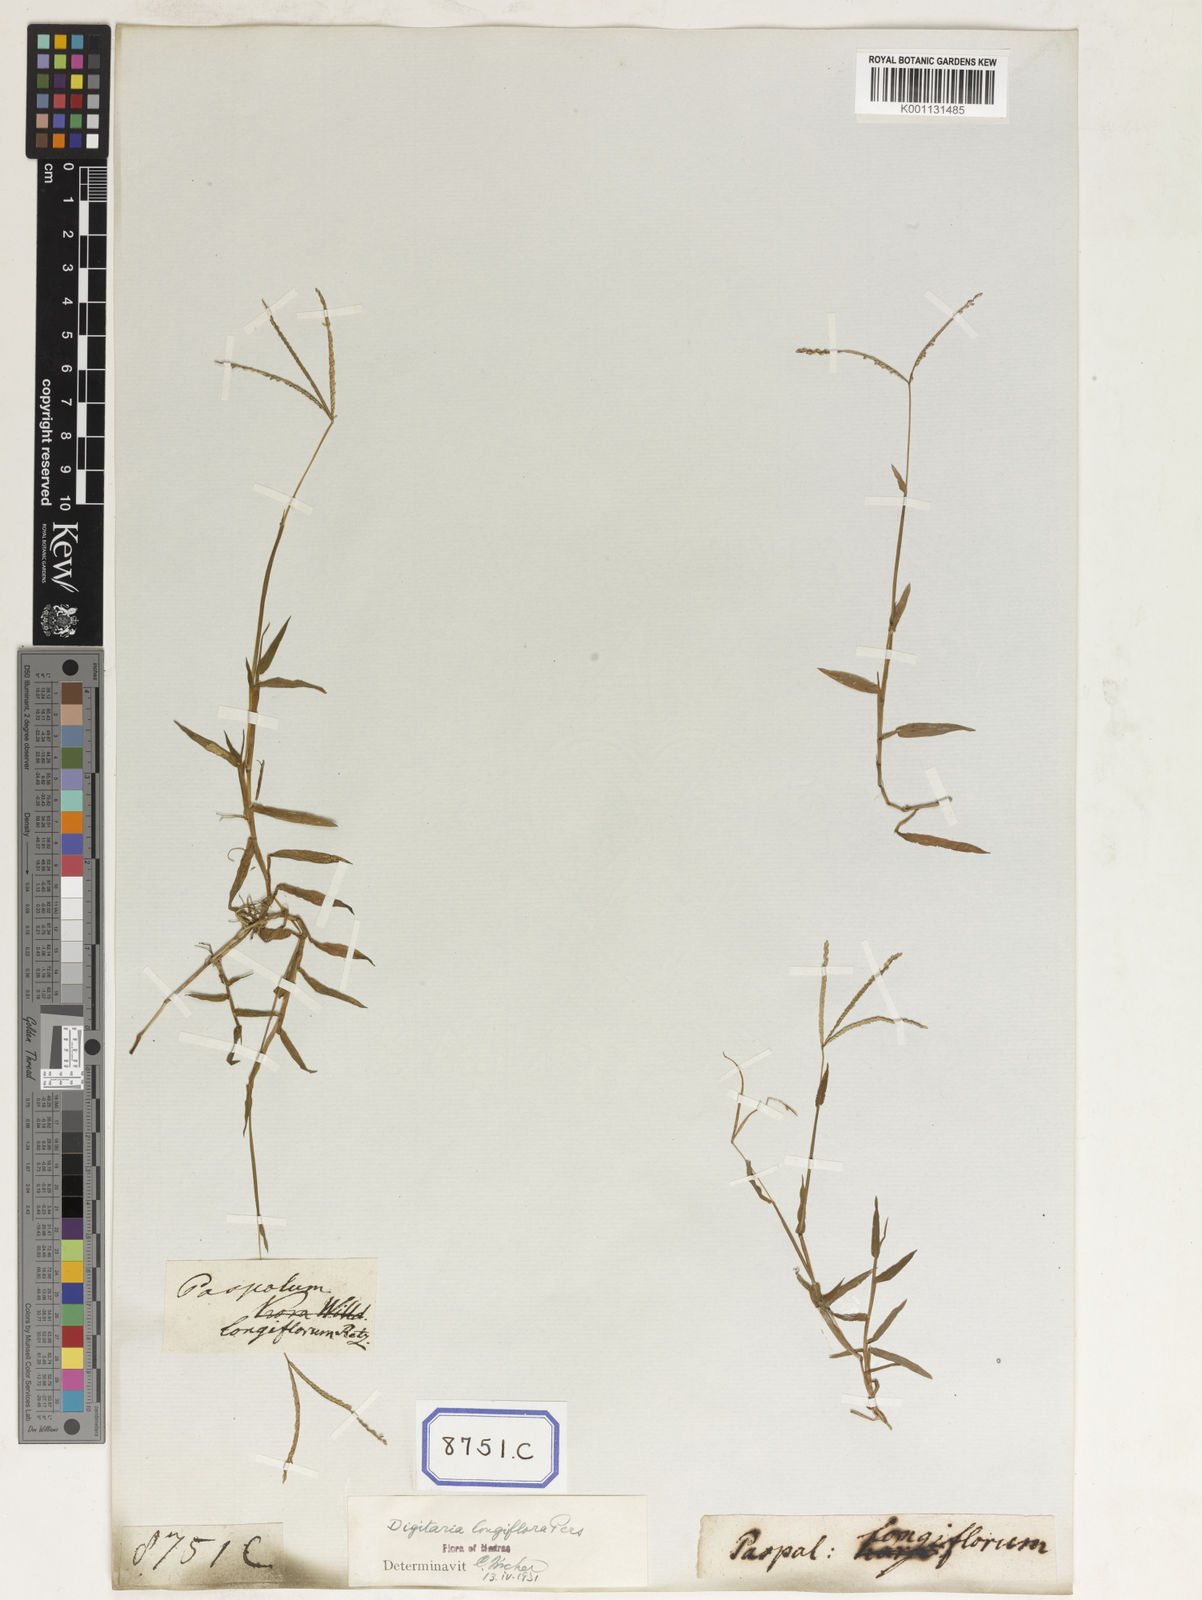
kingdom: Plantae
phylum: Tracheophyta
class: Liliopsida
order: Poales
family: Poaceae
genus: Paspalum
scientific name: Paspalum
